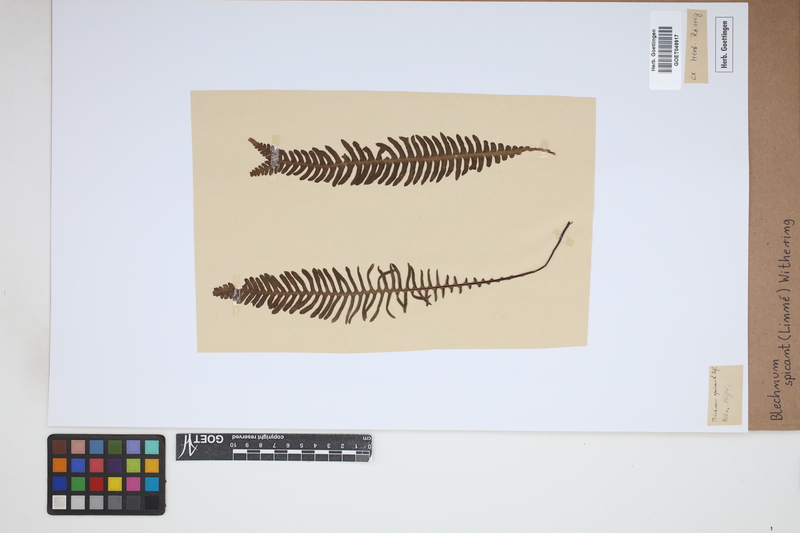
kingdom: Plantae
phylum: Tracheophyta
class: Polypodiopsida
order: Polypodiales
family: Blechnaceae
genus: Struthiopteris
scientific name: Struthiopteris spicant
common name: Deer fern
